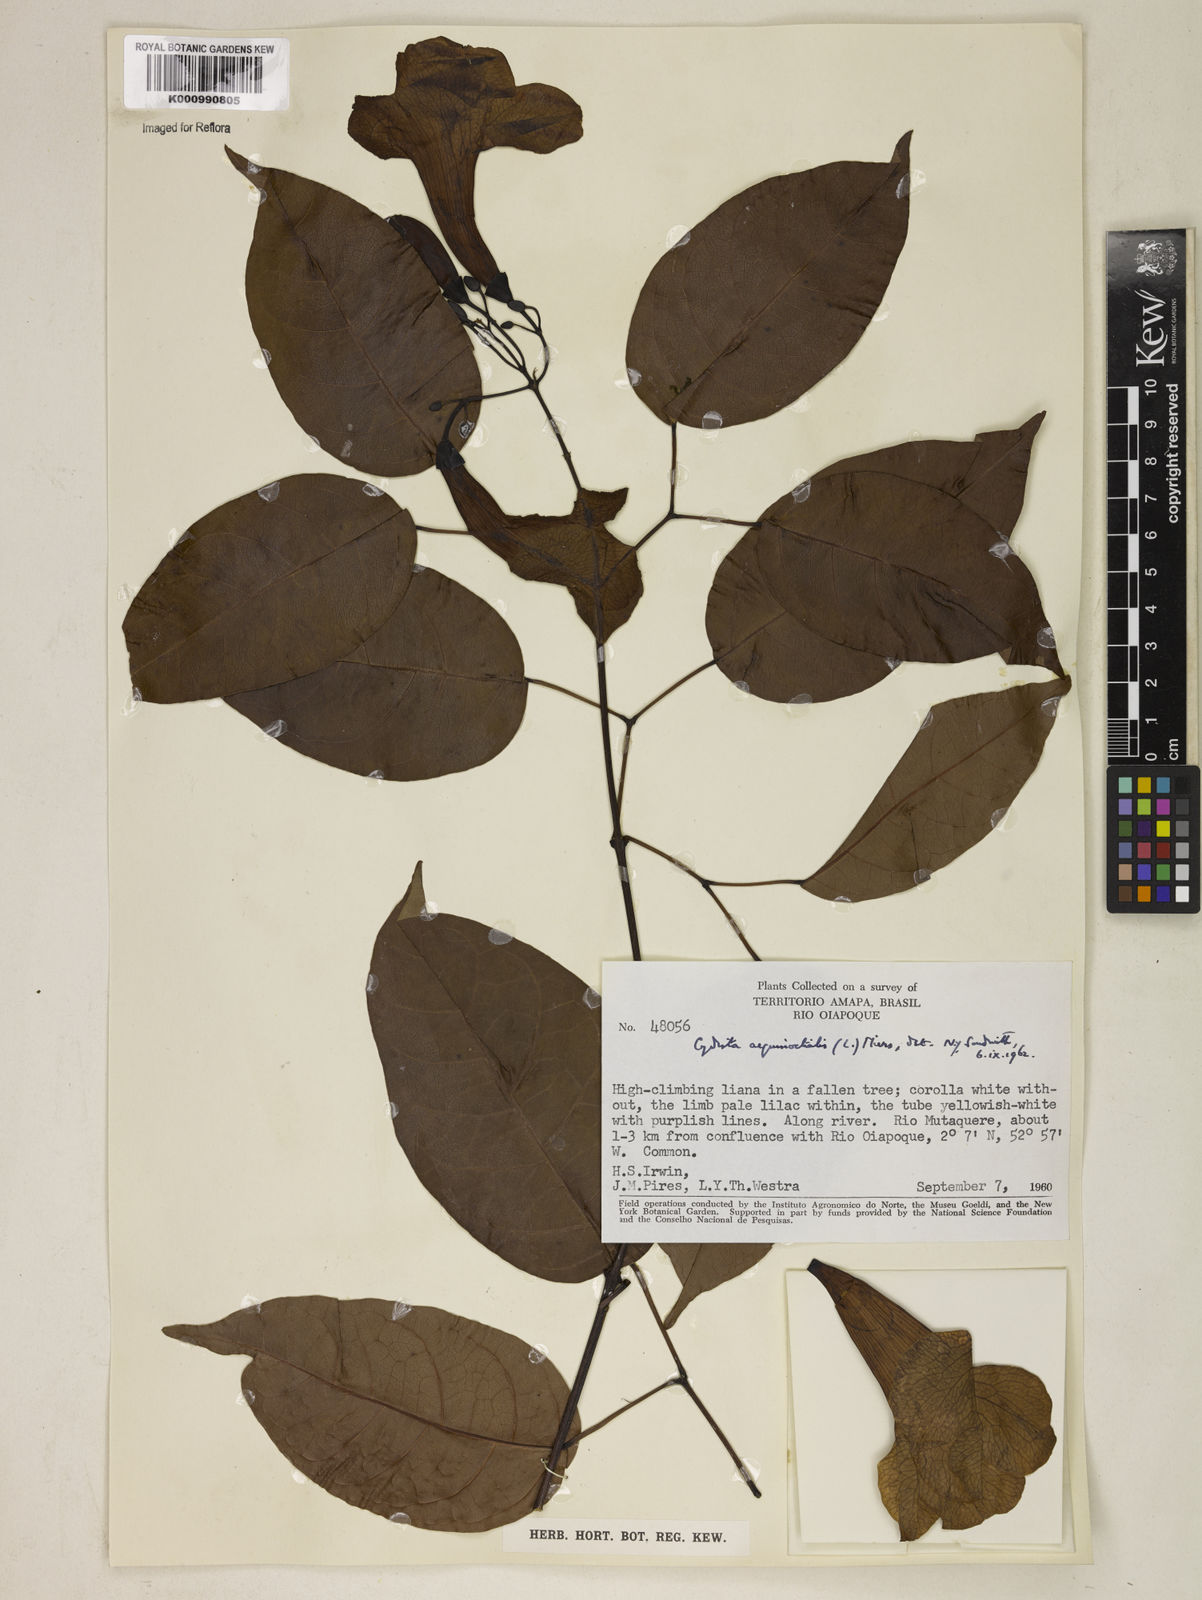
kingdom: Plantae
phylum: Tracheophyta
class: Magnoliopsida
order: Lamiales
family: Bignoniaceae
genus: Bignonia
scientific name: Bignonia aequinoctialis
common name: Garlicvine
